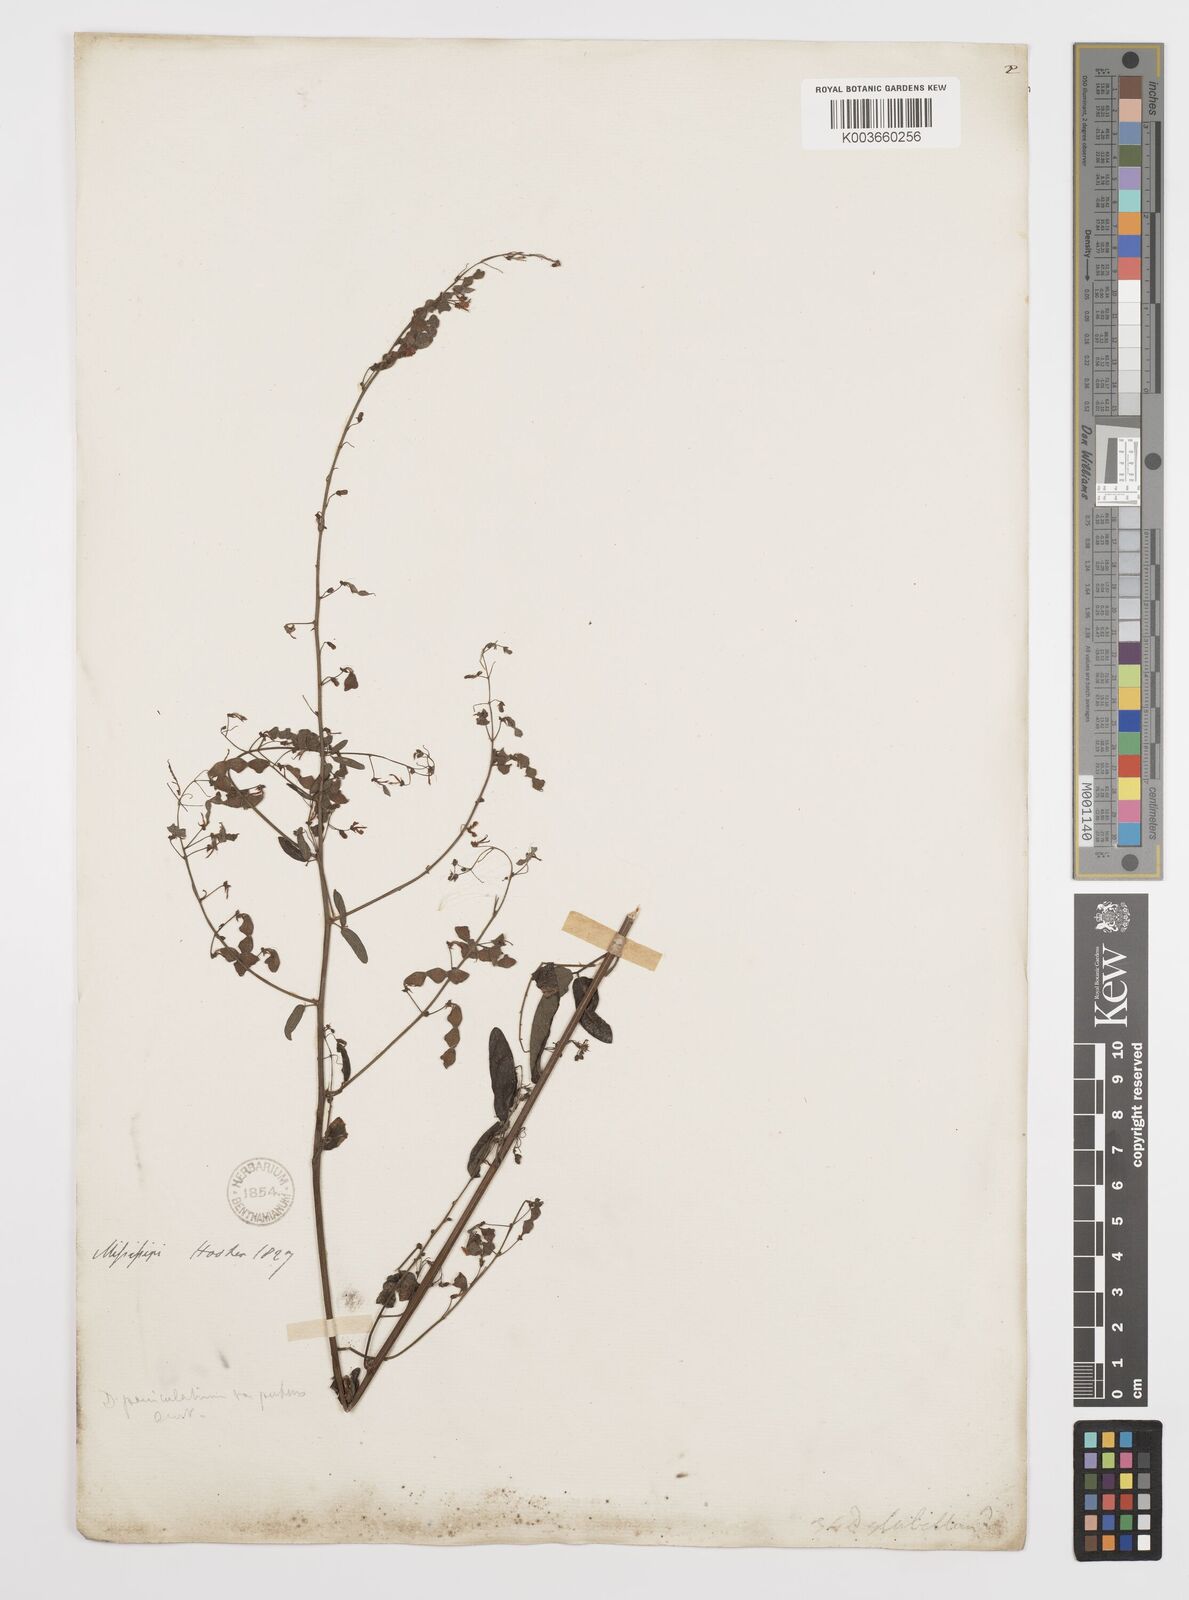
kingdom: Plantae
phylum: Tracheophyta
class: Magnoliopsida
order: Fabales
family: Fabaceae
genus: Desmodium
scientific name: Desmodium paniculatum
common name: Panicled tick-clover
